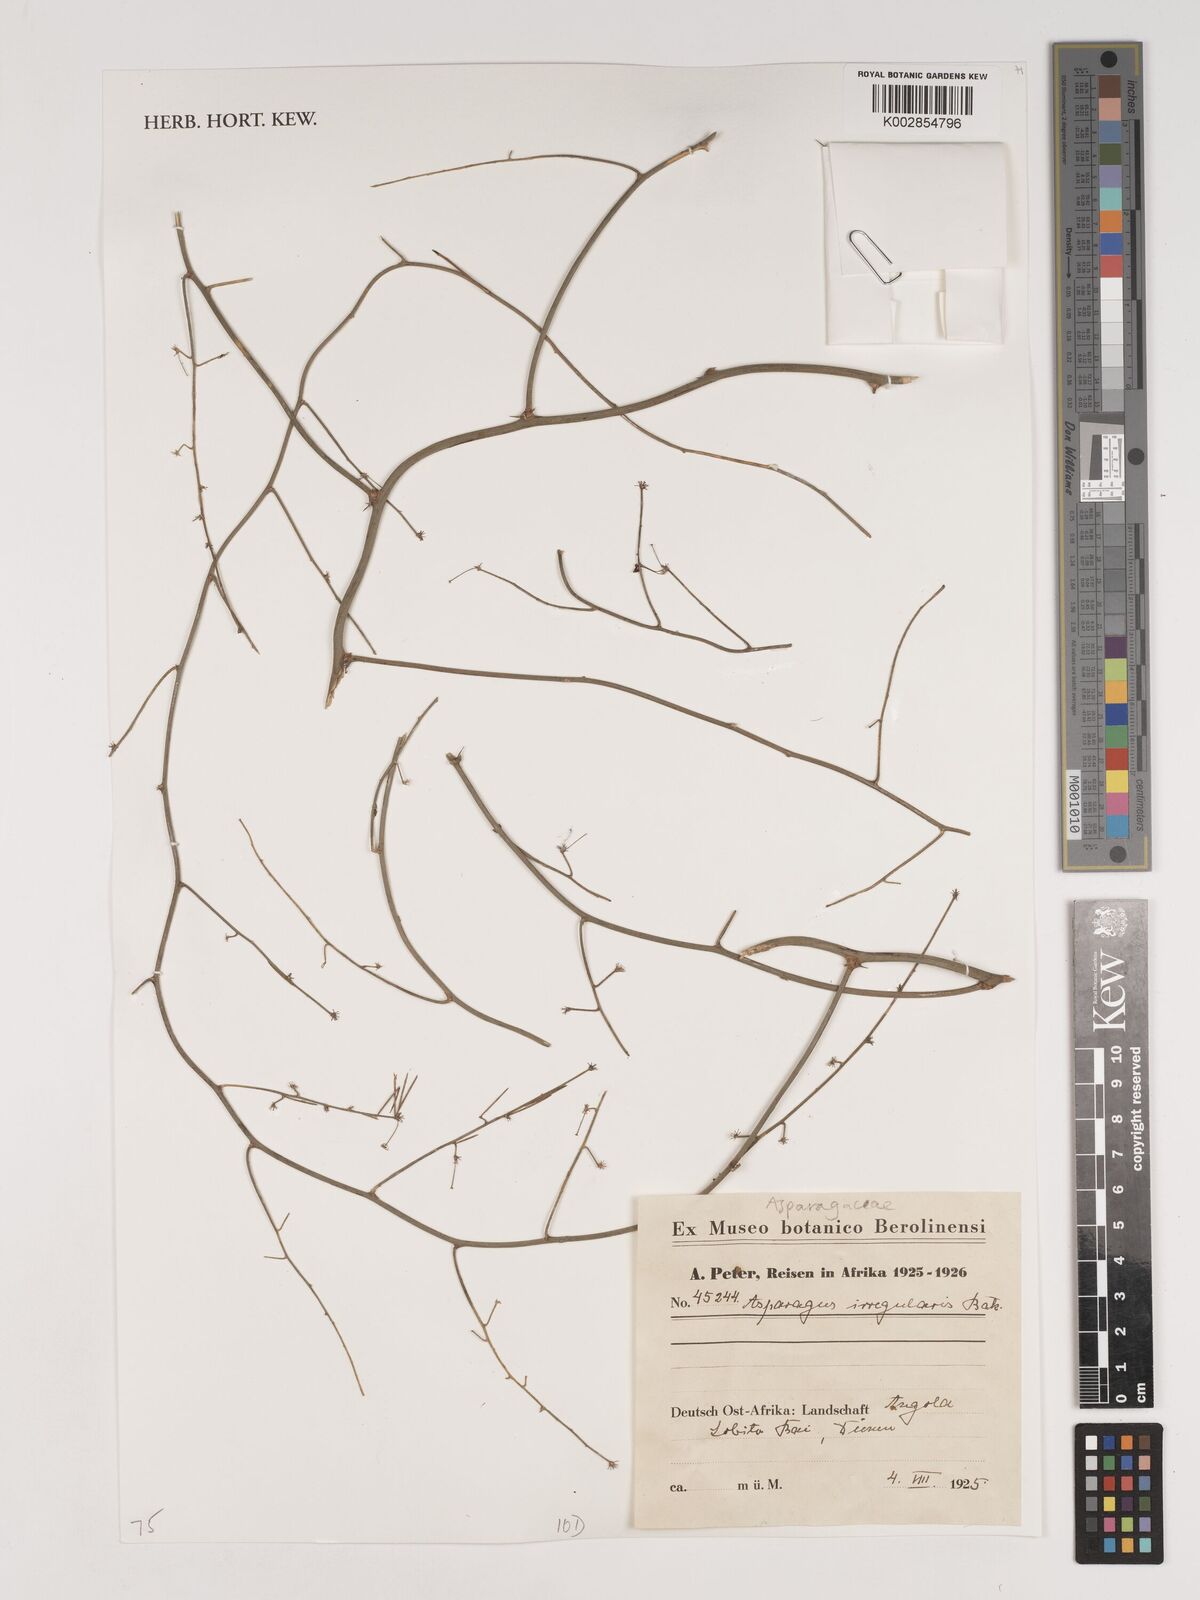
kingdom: Plantae
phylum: Tracheophyta
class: Liliopsida
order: Asparagales
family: Asparagaceae
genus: Asparagus
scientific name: Asparagus africanus
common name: Asparagus-fern
